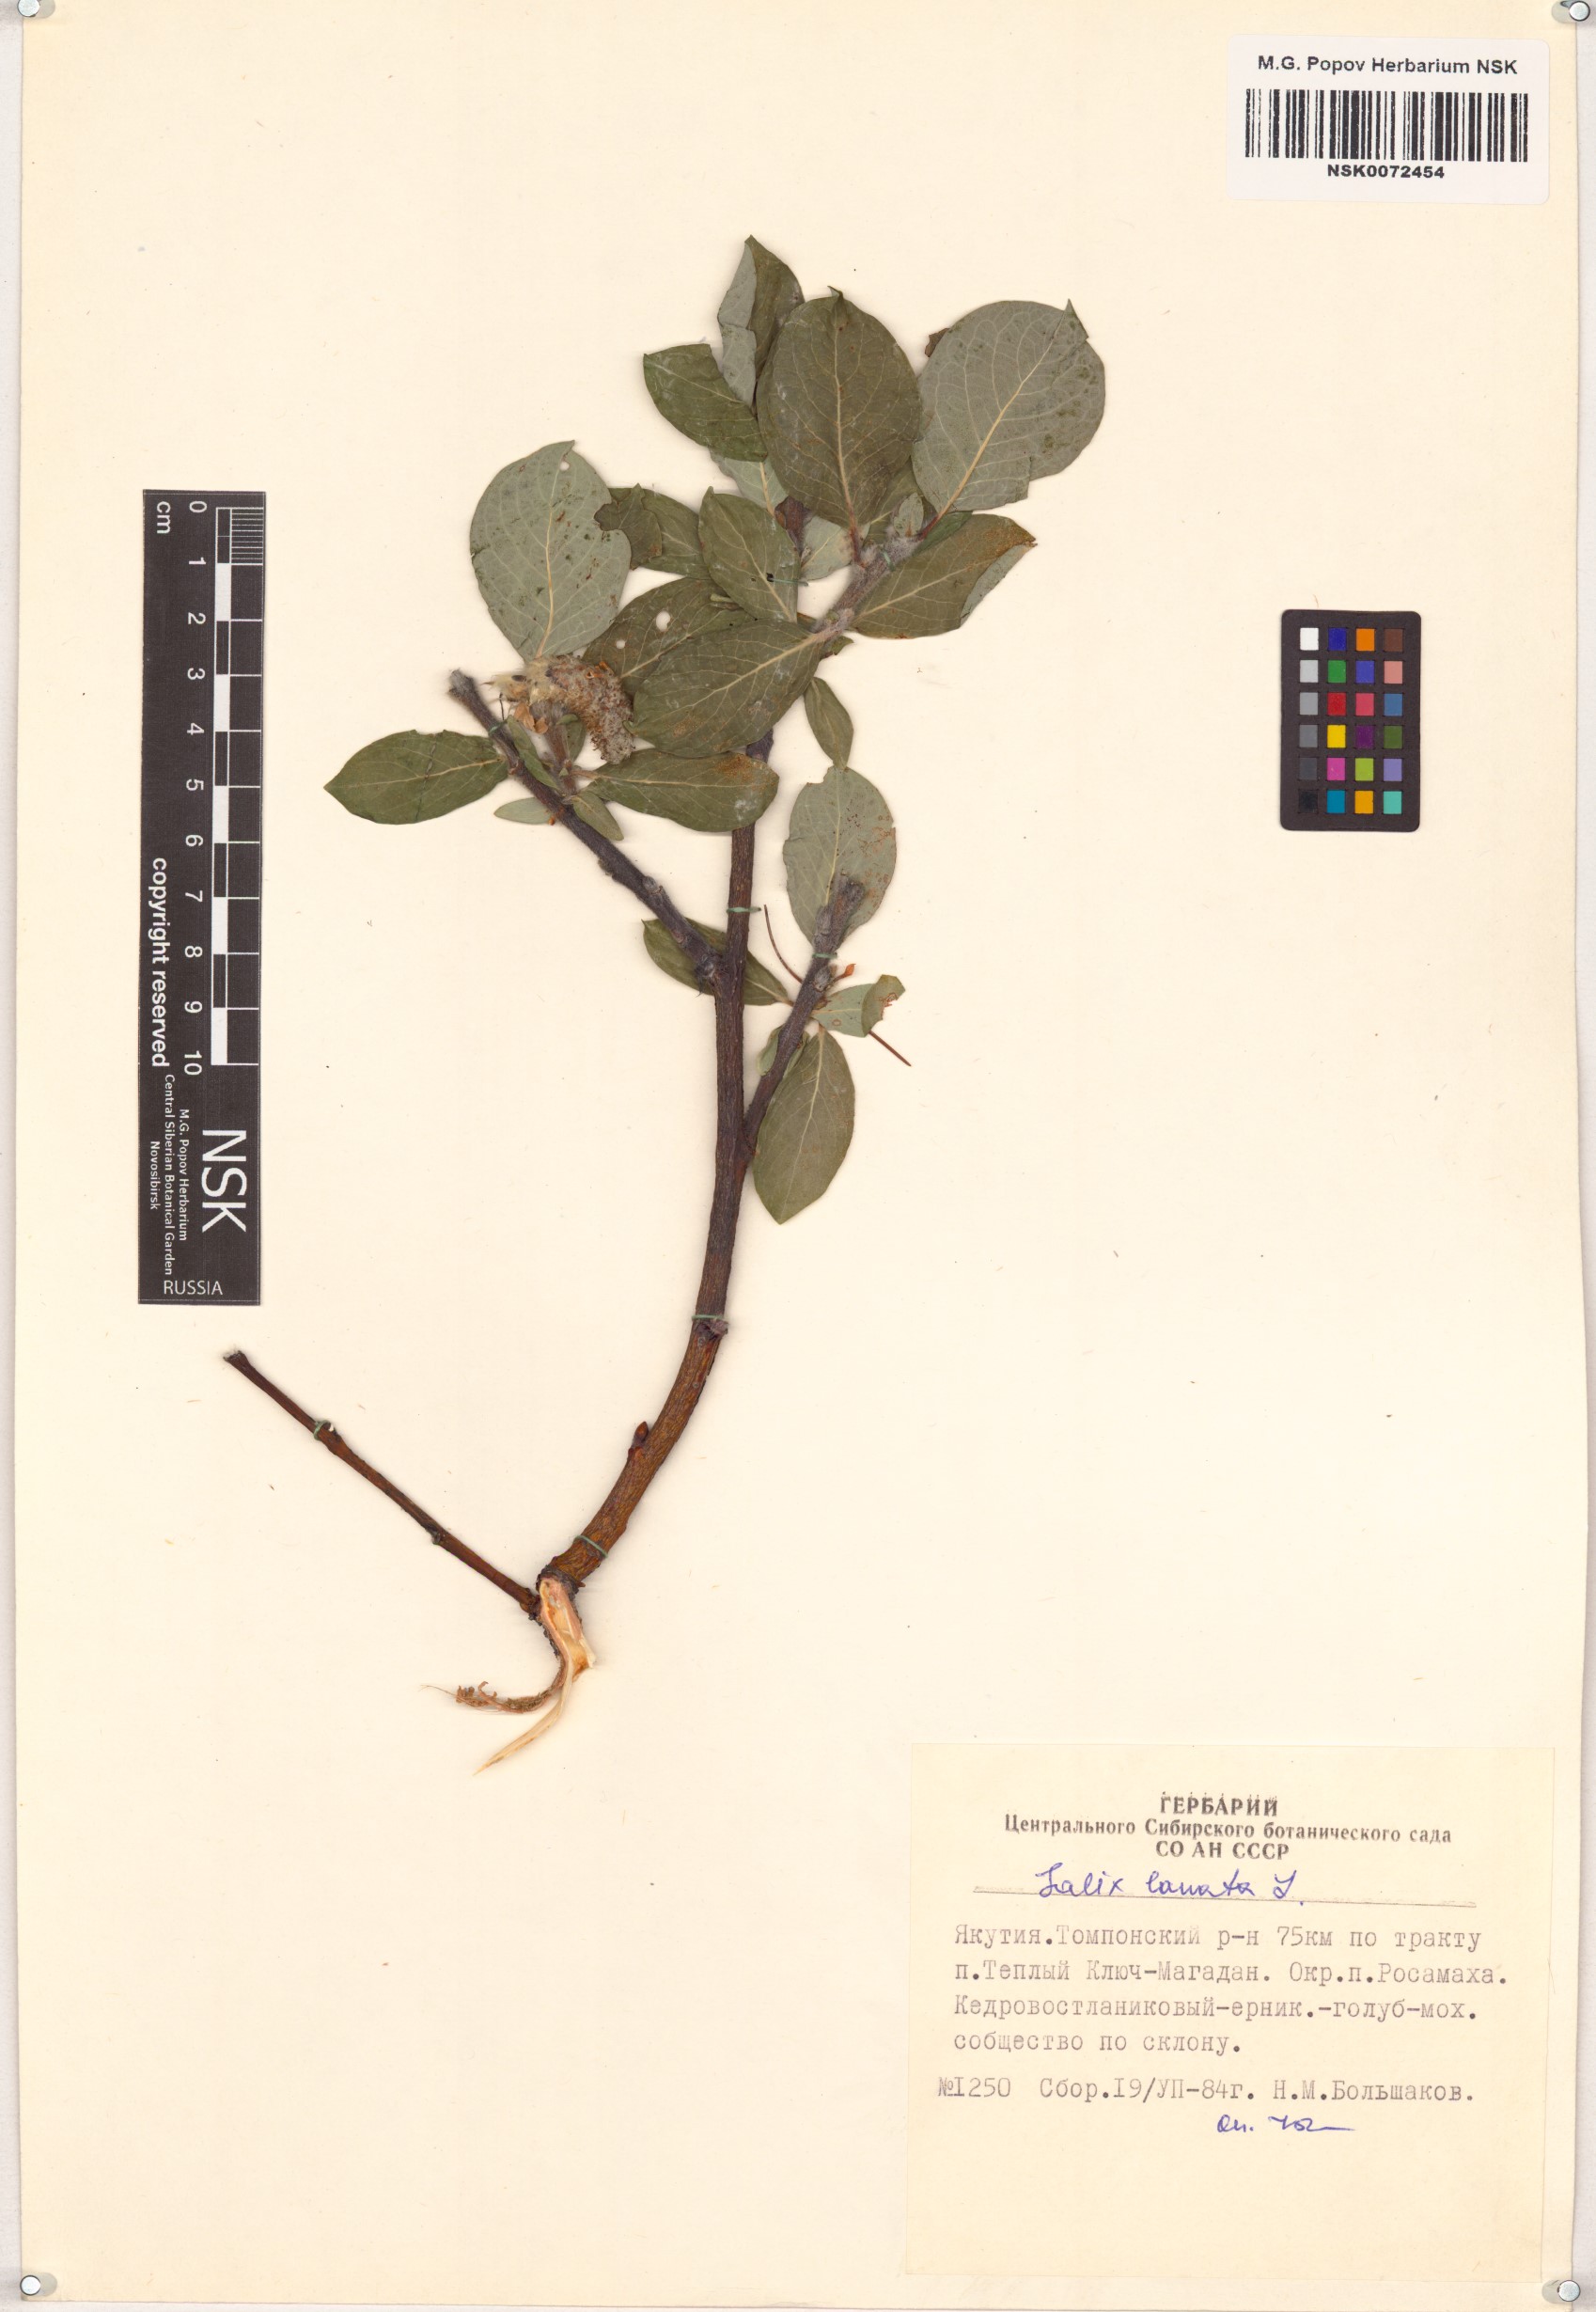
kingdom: Plantae
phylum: Tracheophyta
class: Magnoliopsida
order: Malpighiales
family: Salicaceae
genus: Salix
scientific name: Salix lanata
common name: Woolly willow
